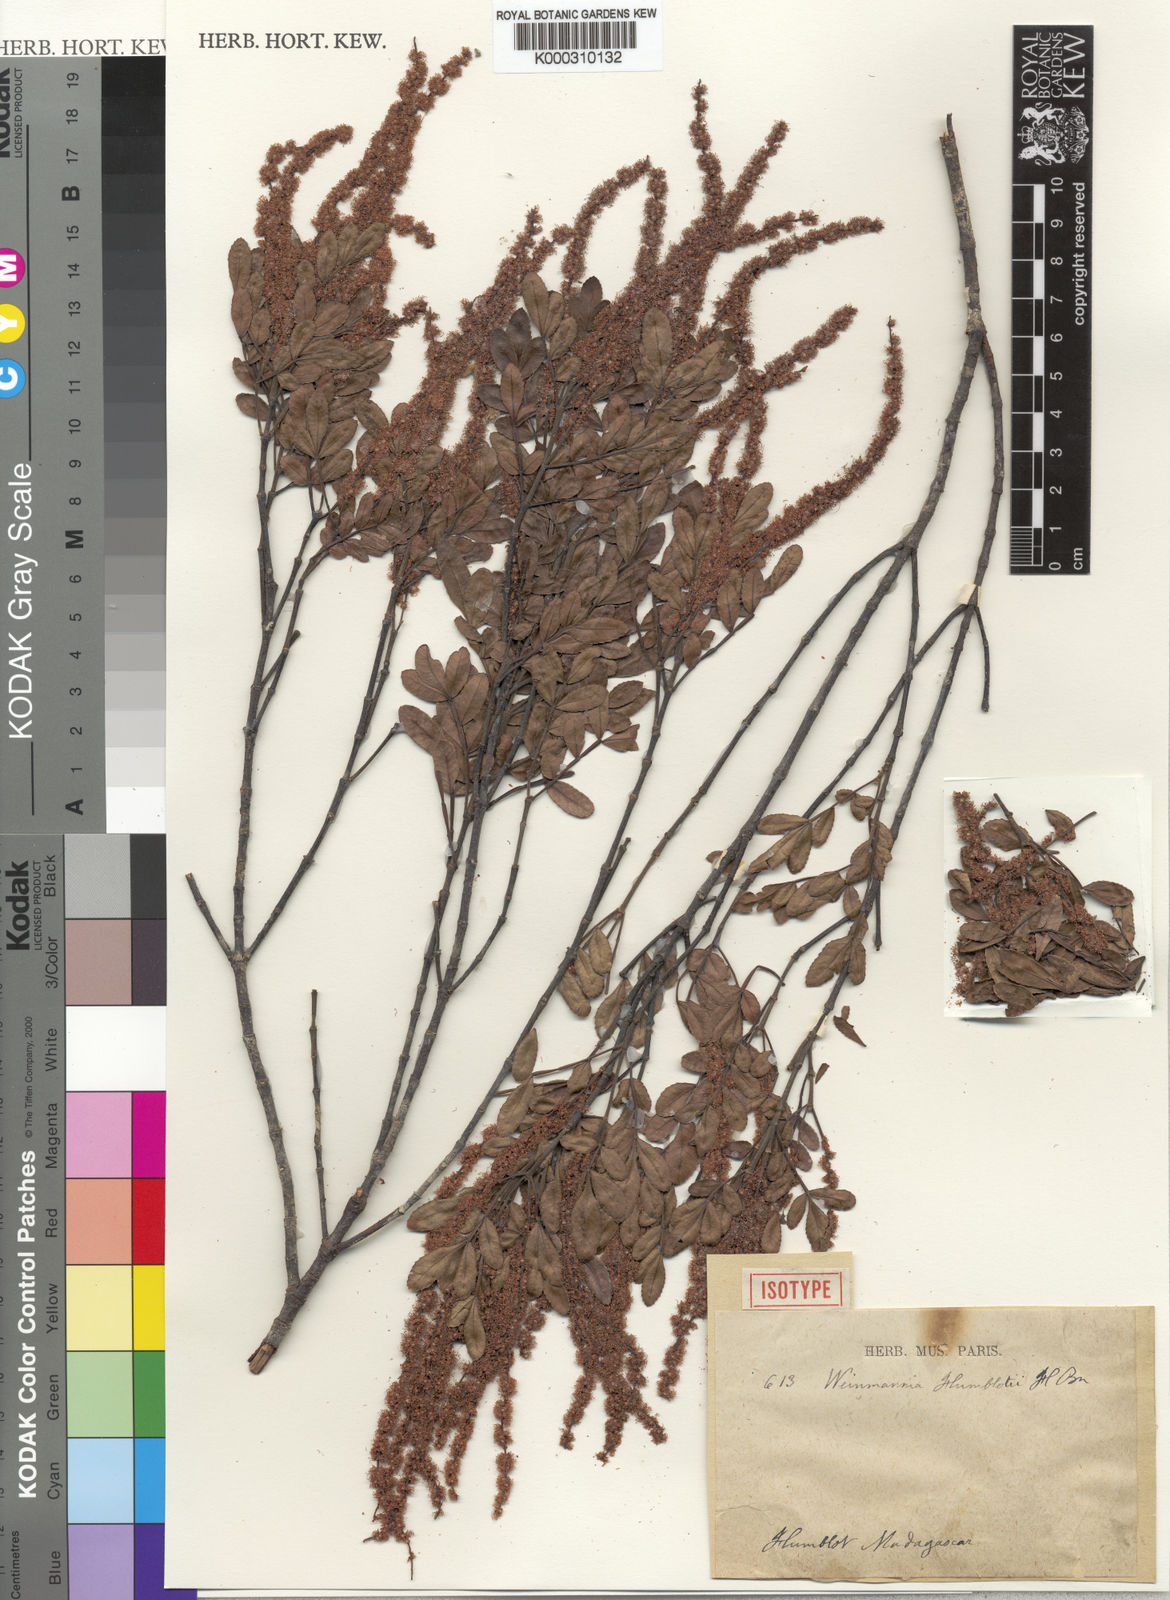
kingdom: Plantae
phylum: Tracheophyta
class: Magnoliopsida
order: Oxalidales
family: Cunoniaceae
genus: Pterophylla
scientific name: Pterophylla humblotii
